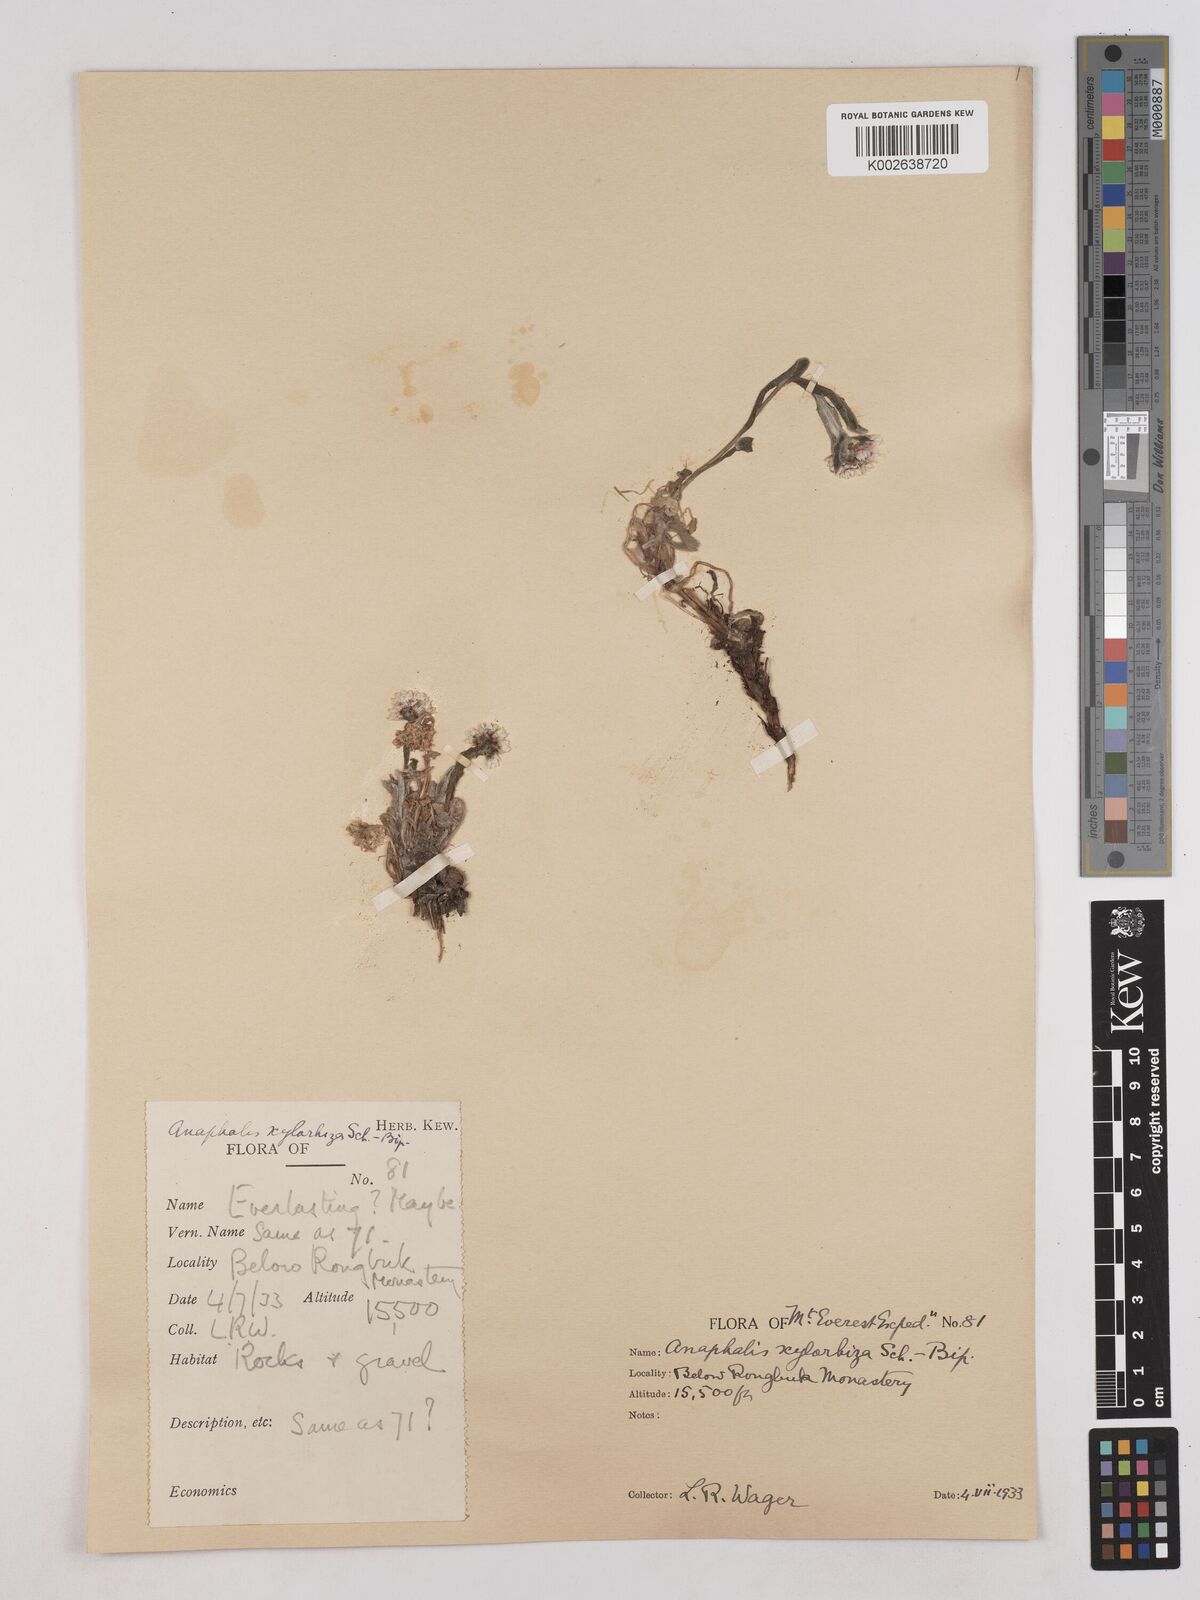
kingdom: Plantae
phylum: Tracheophyta
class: Magnoliopsida
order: Asterales
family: Asteraceae
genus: Anaphalis
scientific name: Anaphalis xylorhiza
